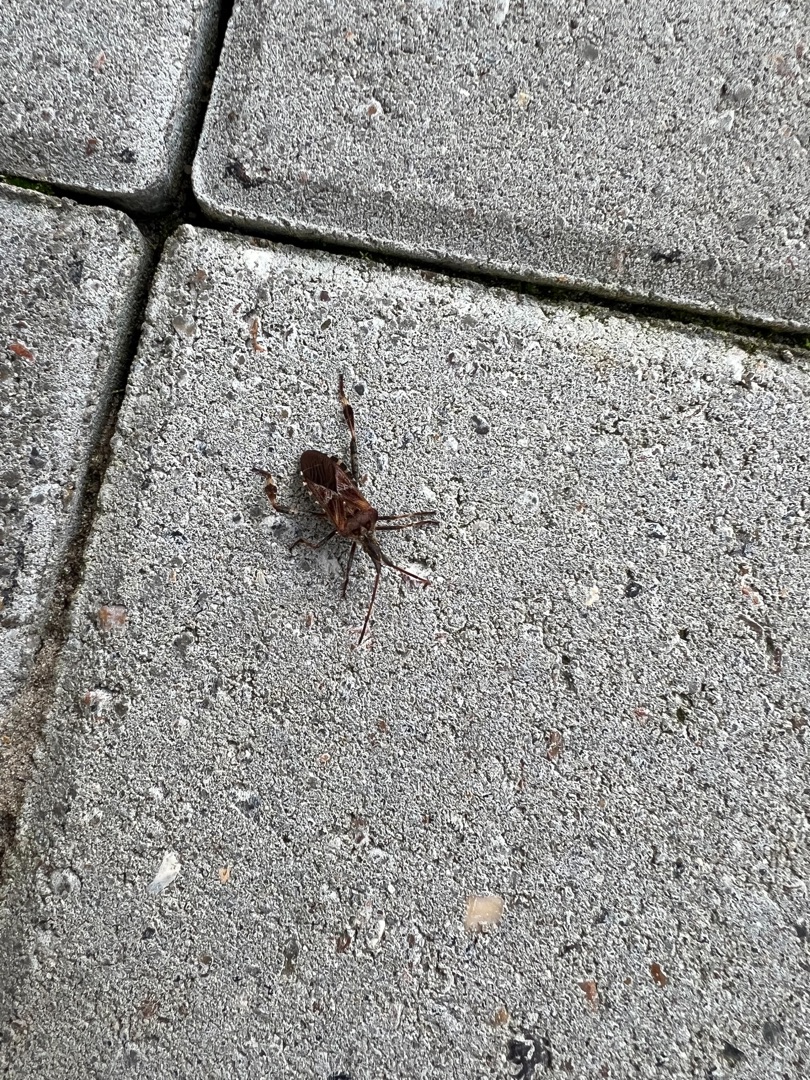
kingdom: Animalia
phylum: Arthropoda
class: Insecta
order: Hemiptera
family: Coreidae
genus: Leptoglossus
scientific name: Leptoglossus occidentalis
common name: Amerikansk fyrretæge
